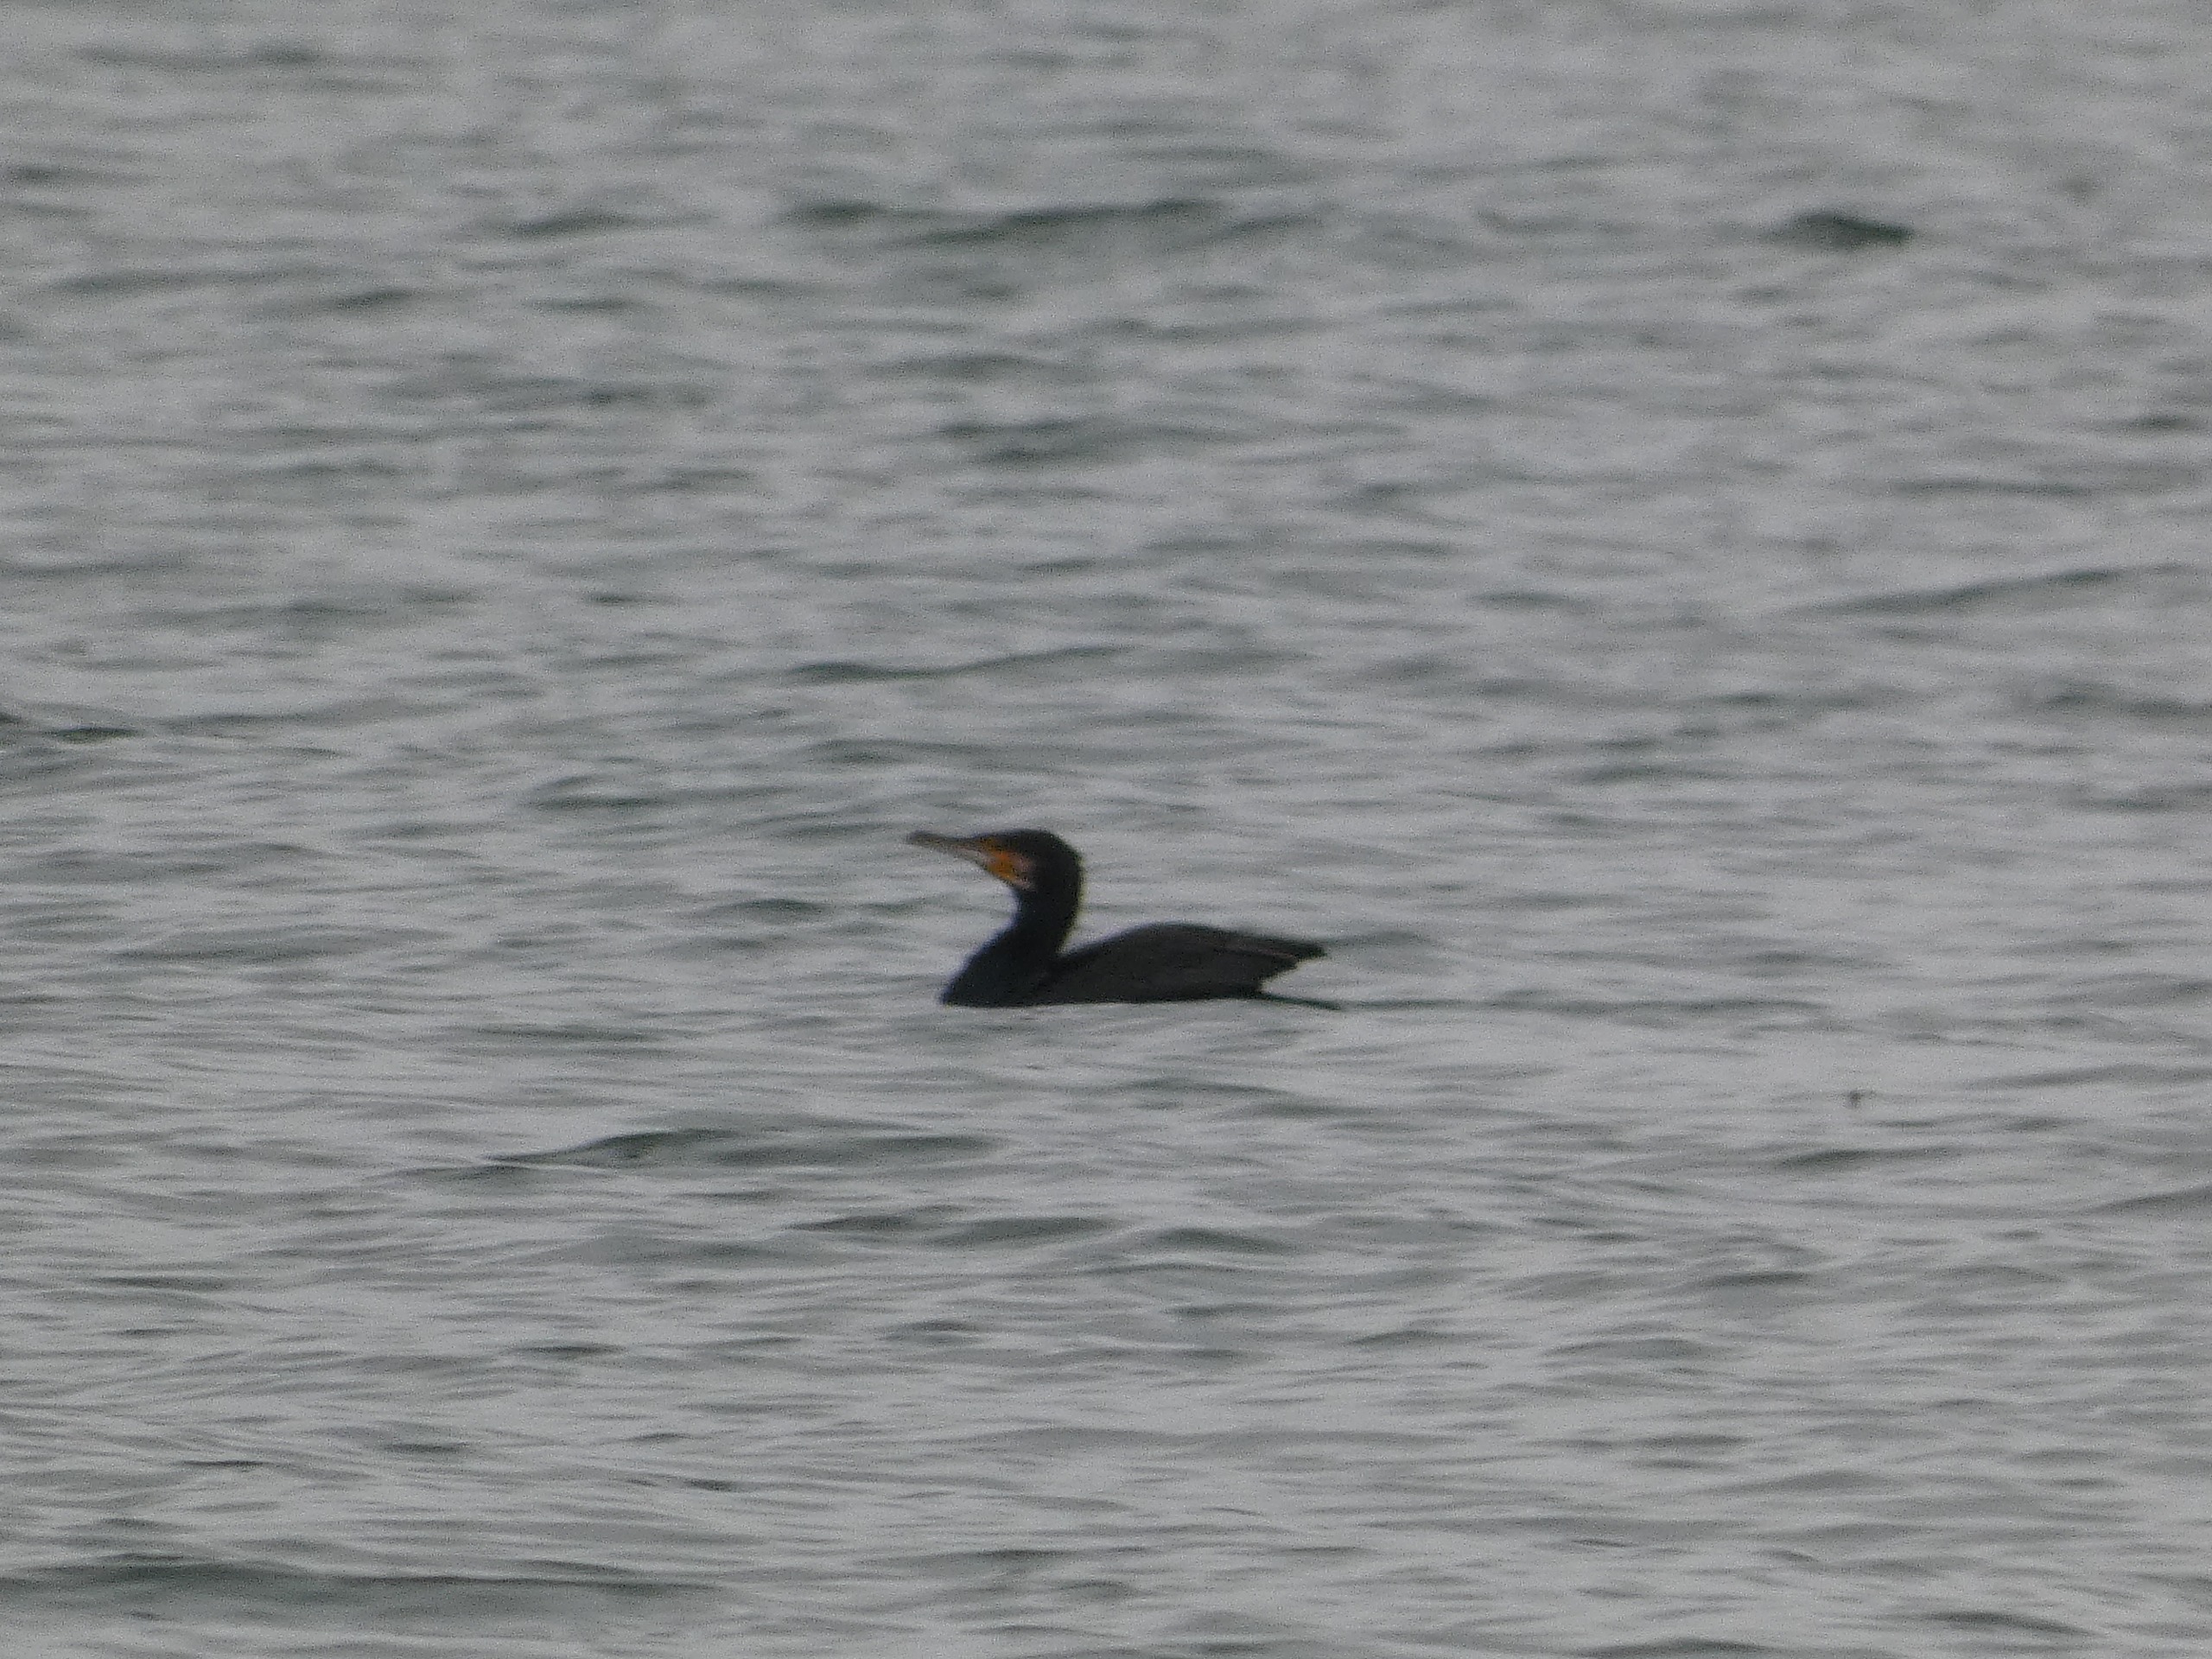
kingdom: Animalia
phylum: Chordata
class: Aves
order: Suliformes
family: Phalacrocoracidae
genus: Phalacrocorax
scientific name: Phalacrocorax carbo
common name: Skarv
